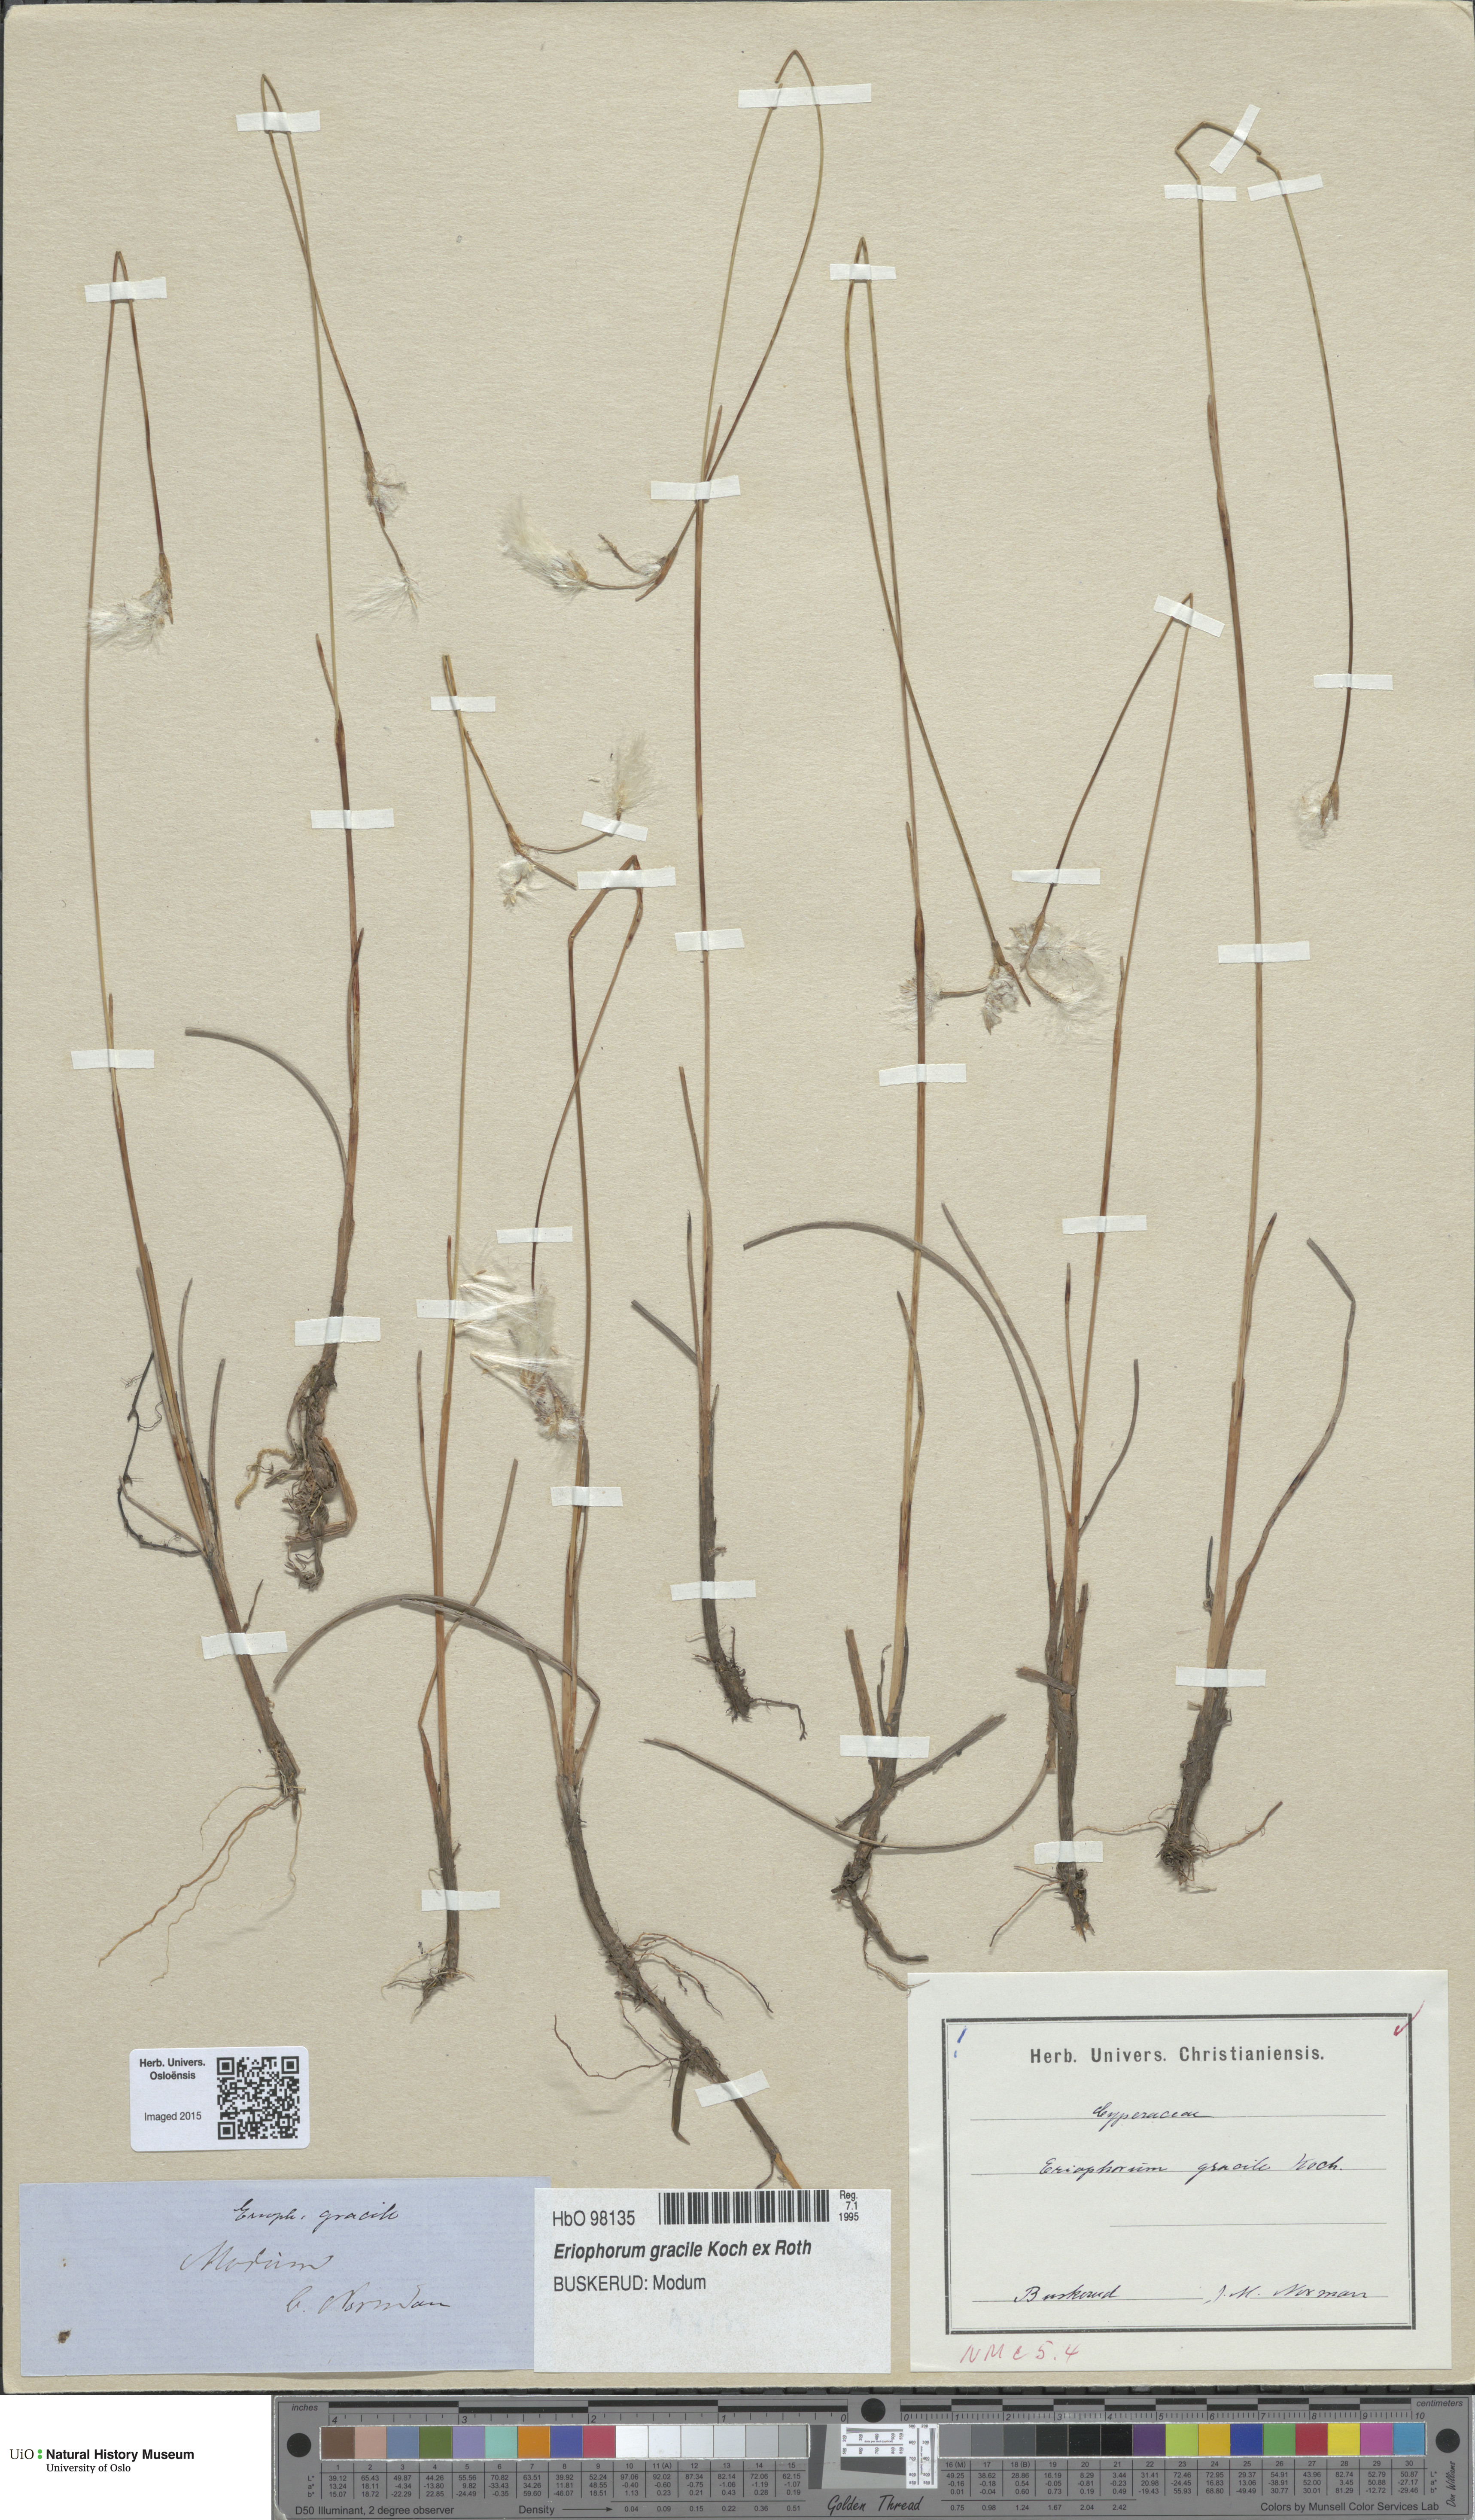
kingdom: Plantae
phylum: Tracheophyta
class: Liliopsida
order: Poales
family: Cyperaceae
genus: Eriophorum
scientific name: Eriophorum gracile
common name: Slender cottongrass
